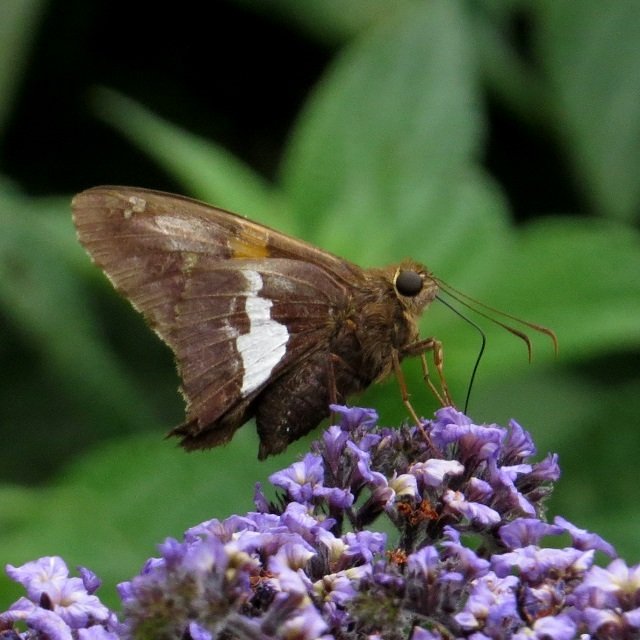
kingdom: Animalia
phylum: Arthropoda
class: Insecta
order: Lepidoptera
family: Hesperiidae
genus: Epargyreus
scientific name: Epargyreus clarus
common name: Silver-spotted Skipper
